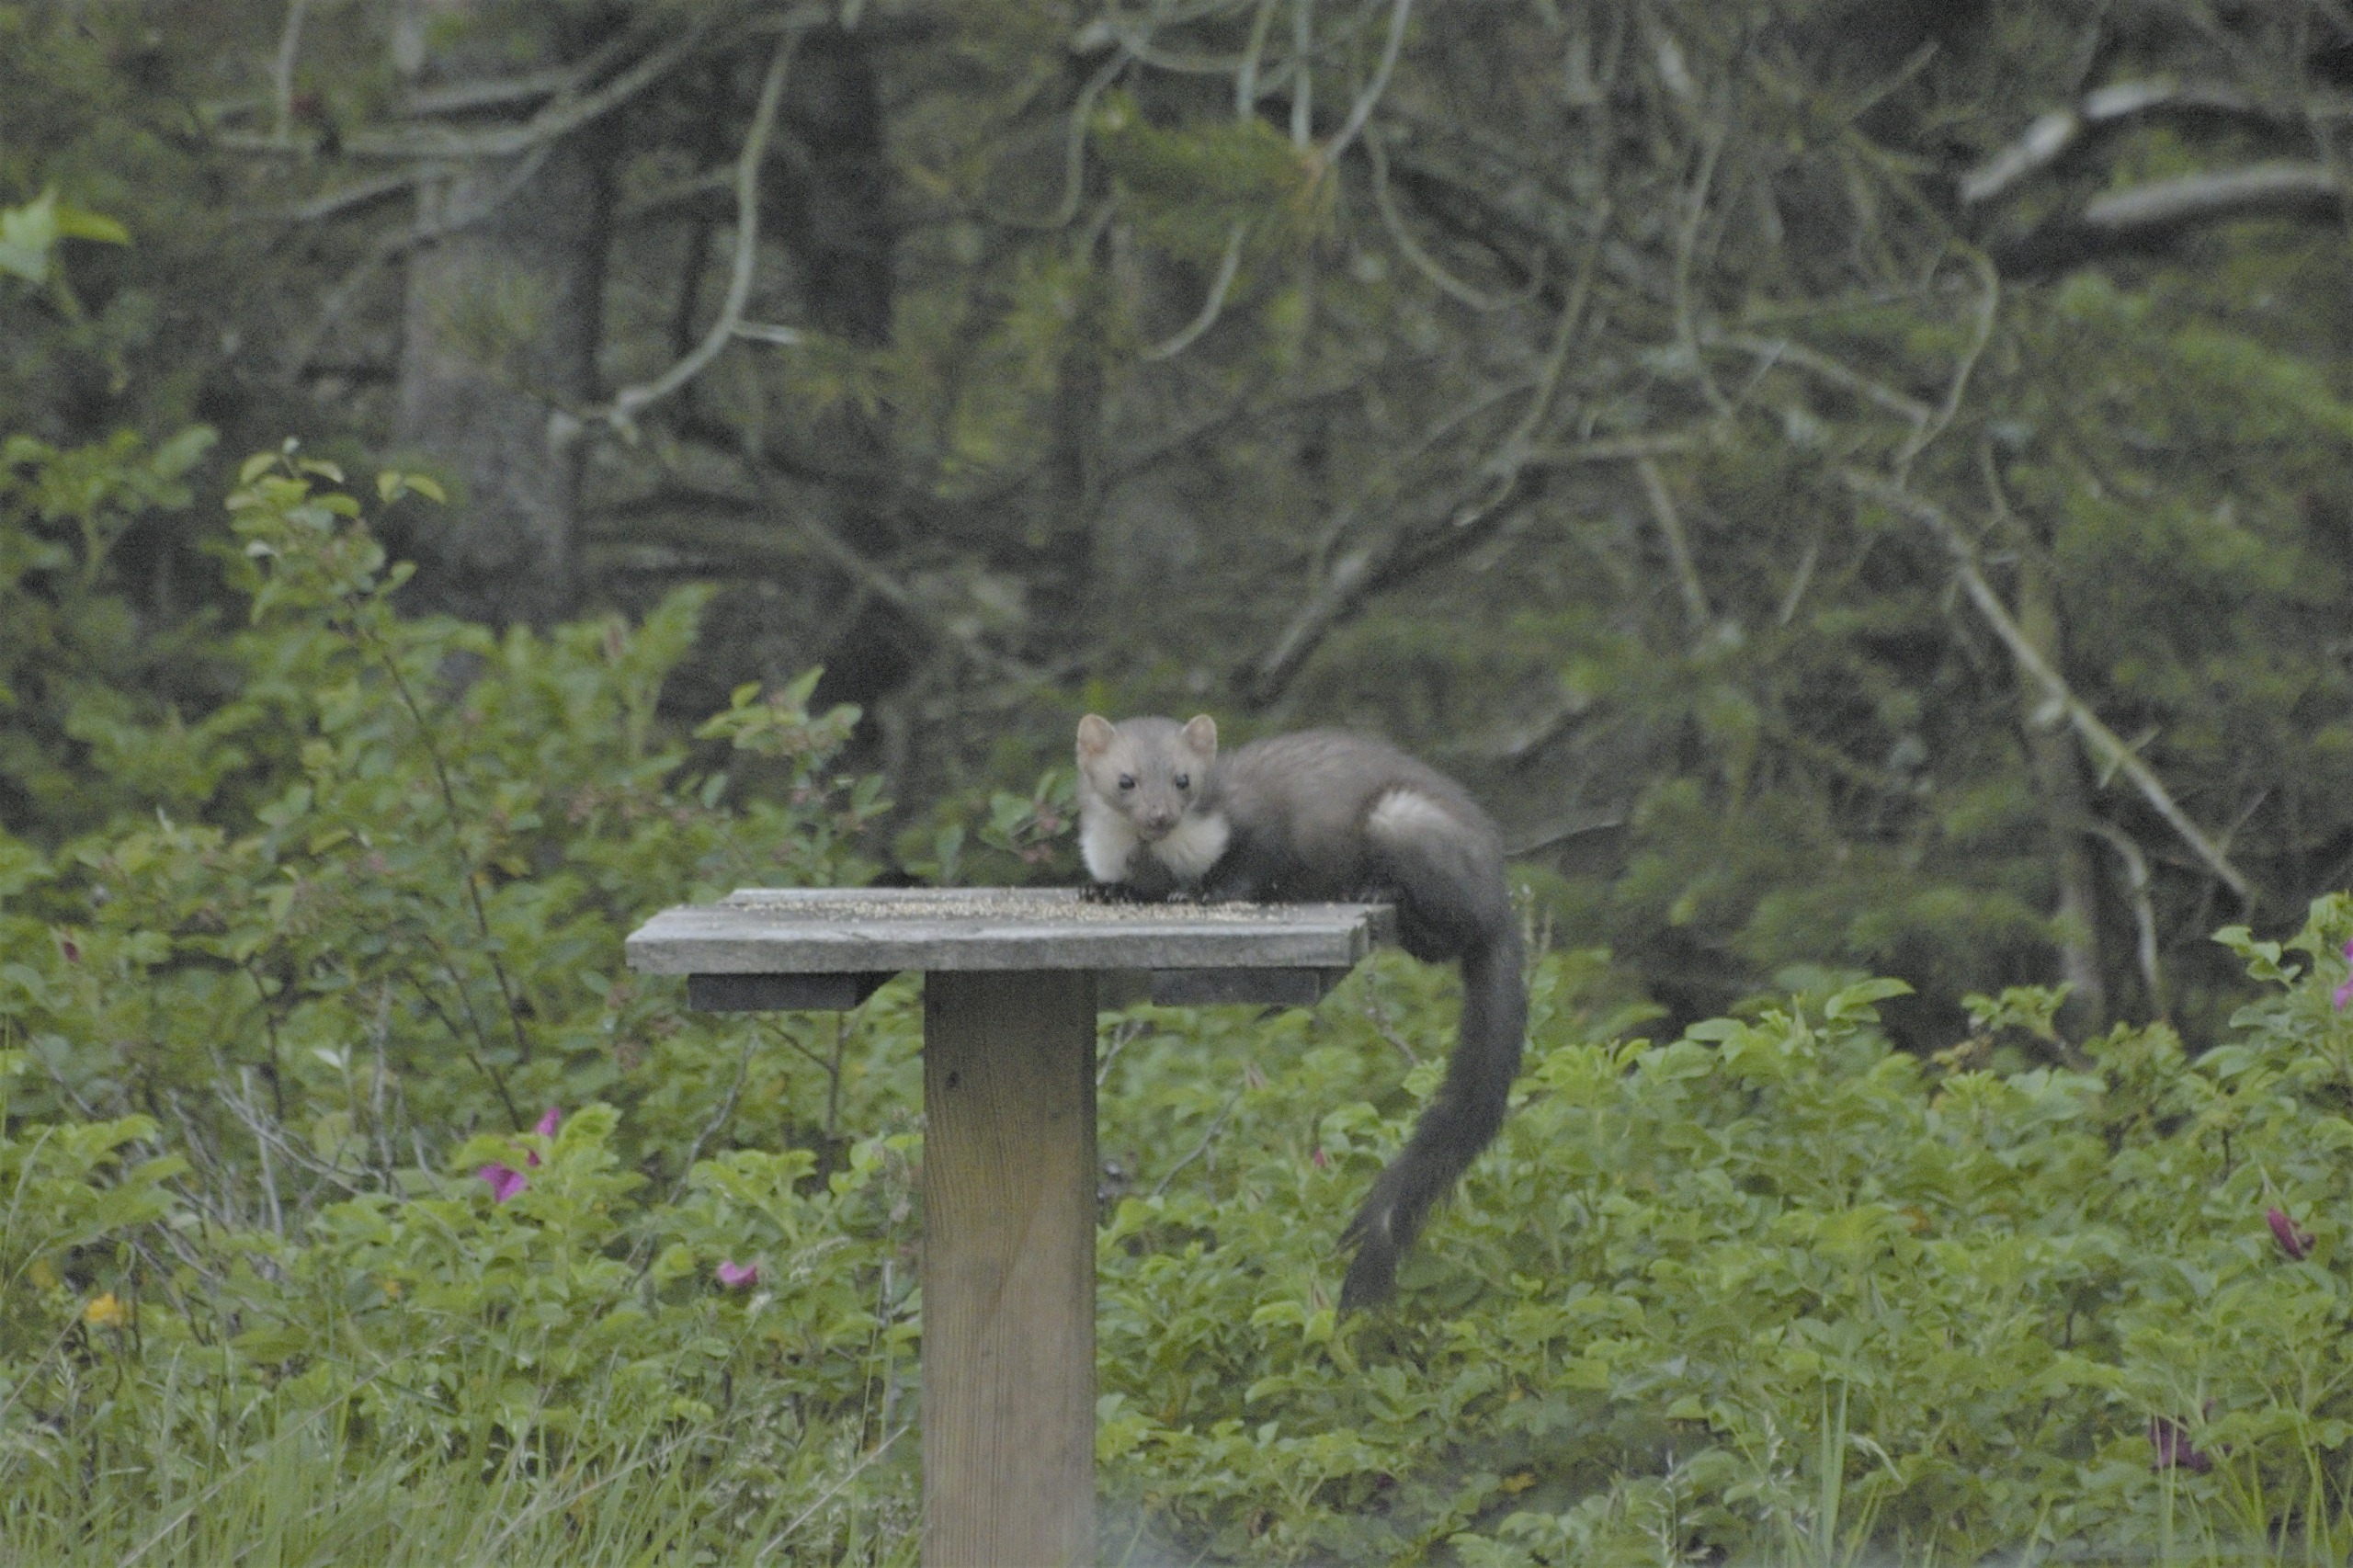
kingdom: Animalia
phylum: Chordata
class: Mammalia
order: Carnivora
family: Mustelidae
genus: Martes
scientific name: Martes foina
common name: Husmår
